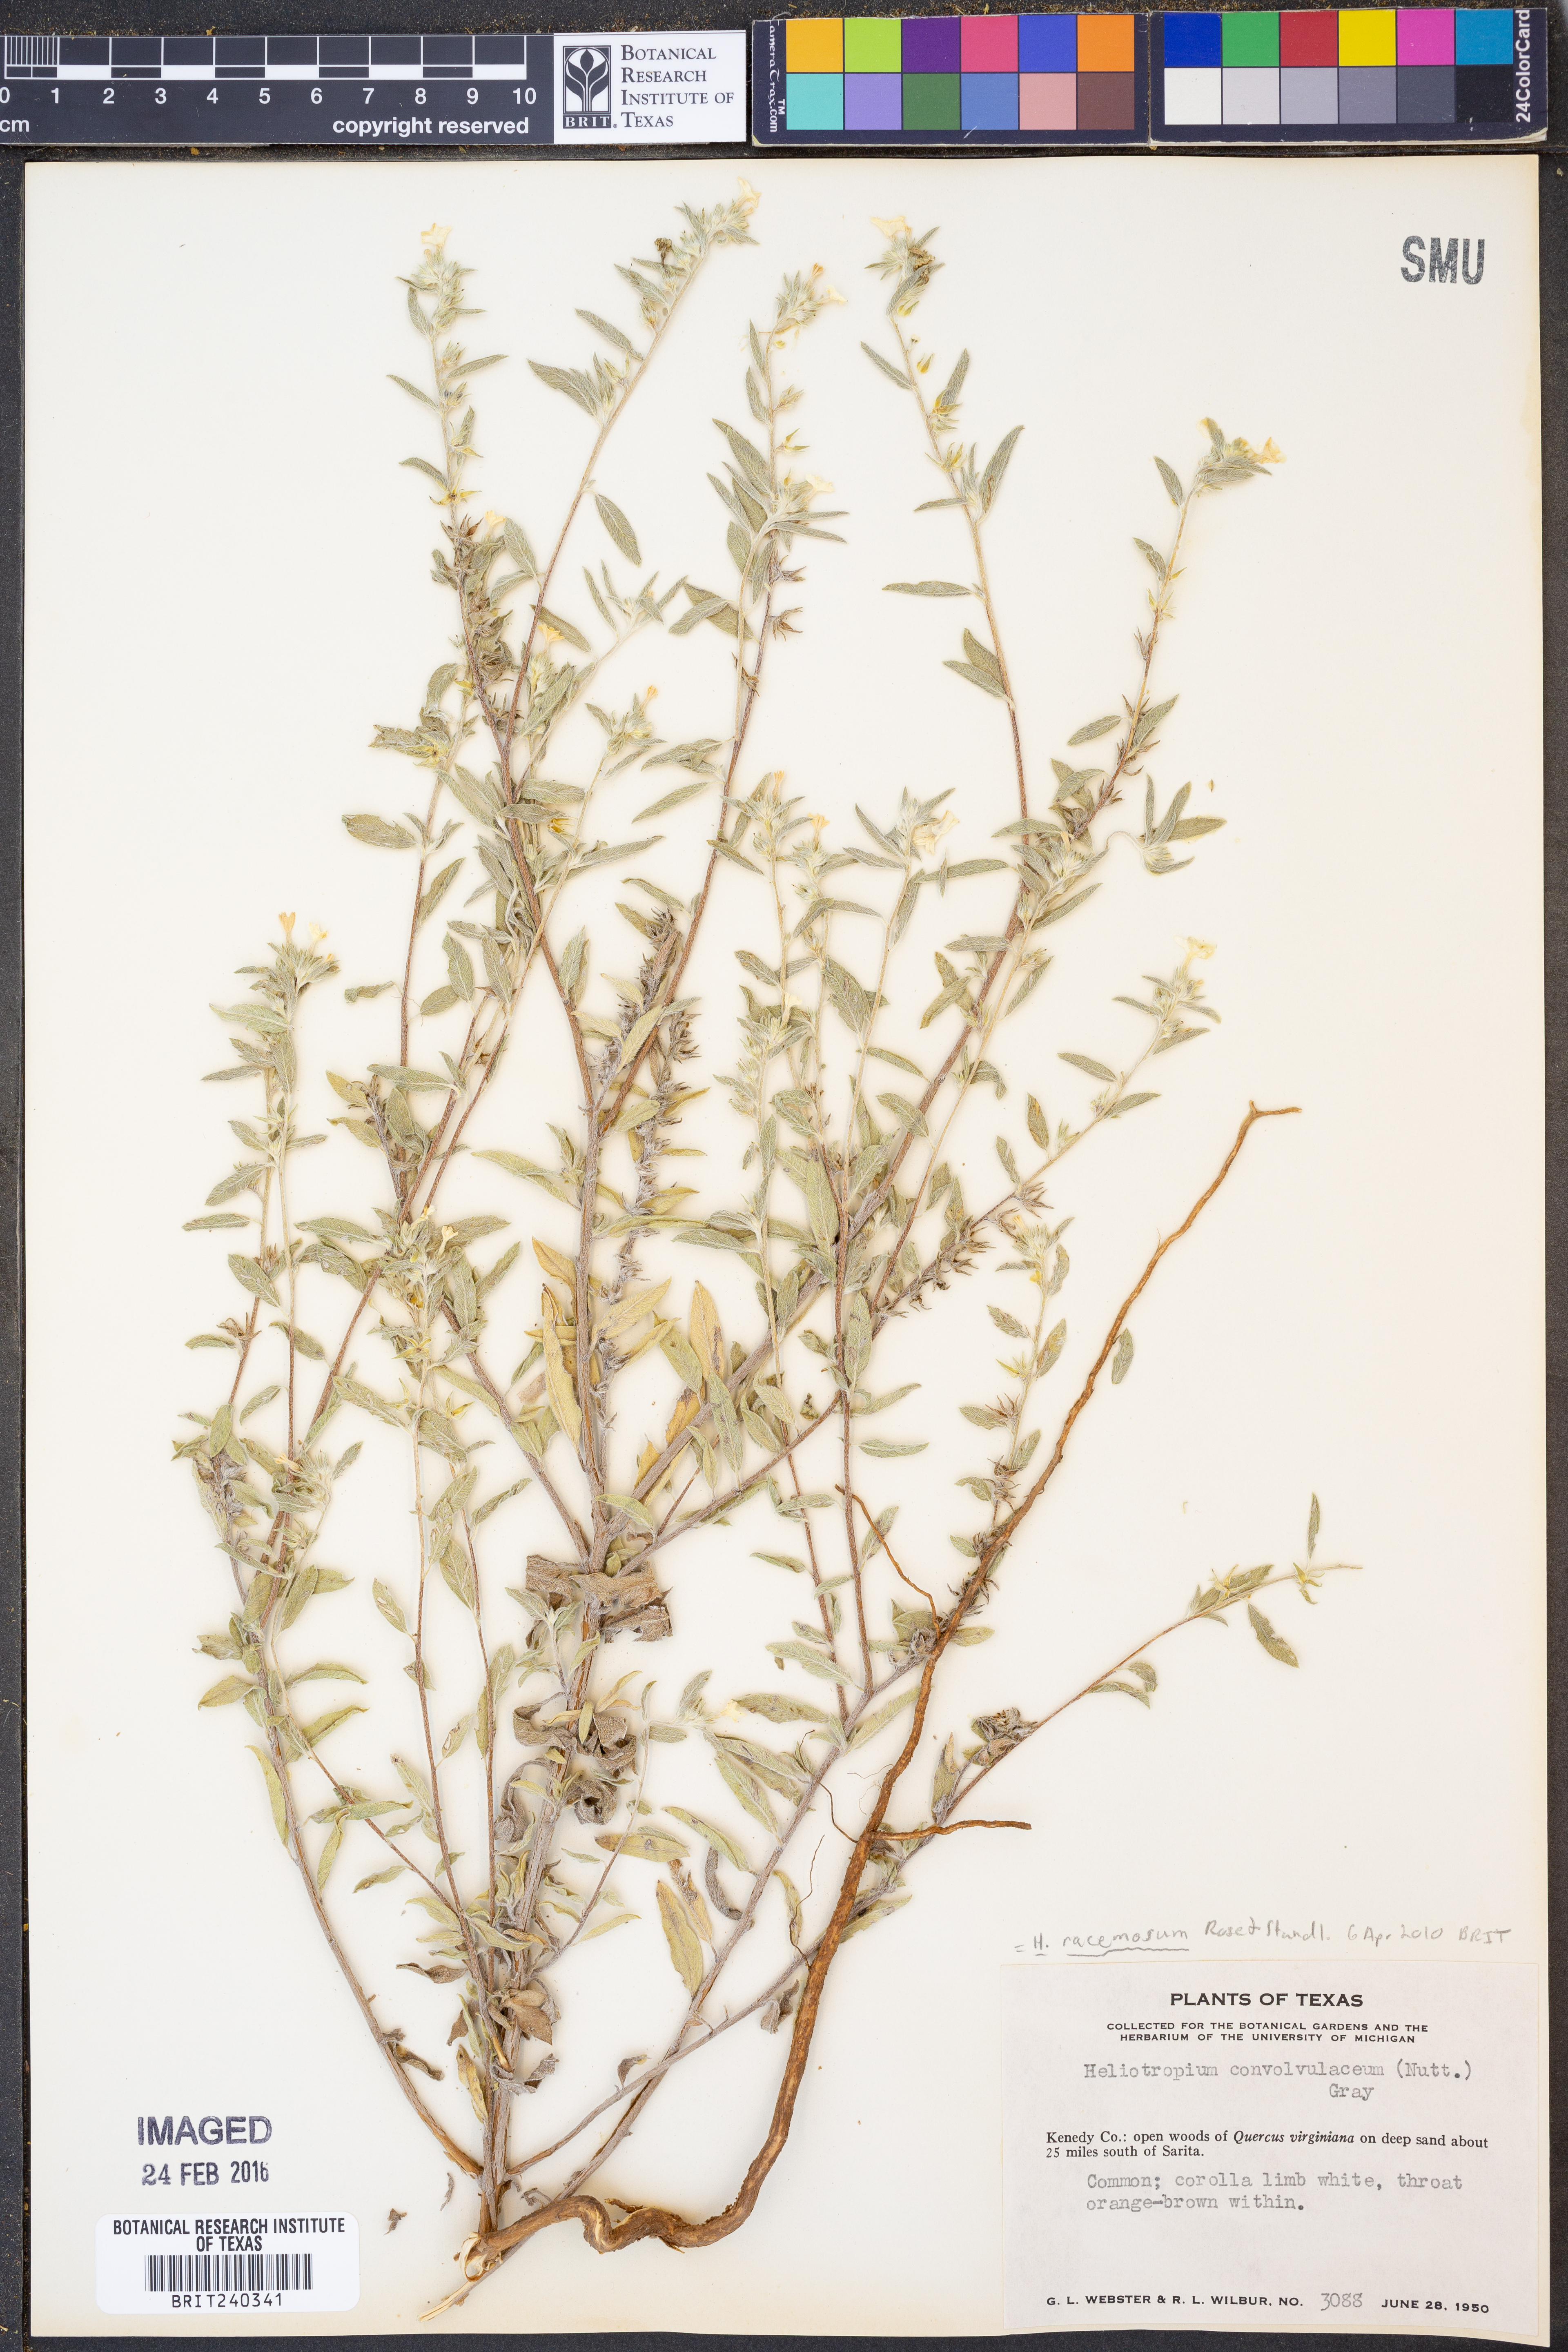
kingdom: Plantae
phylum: Tracheophyta
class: Magnoliopsida
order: Boraginales
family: Heliotropiaceae
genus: Heliotropium
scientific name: Heliotropium racemosum
